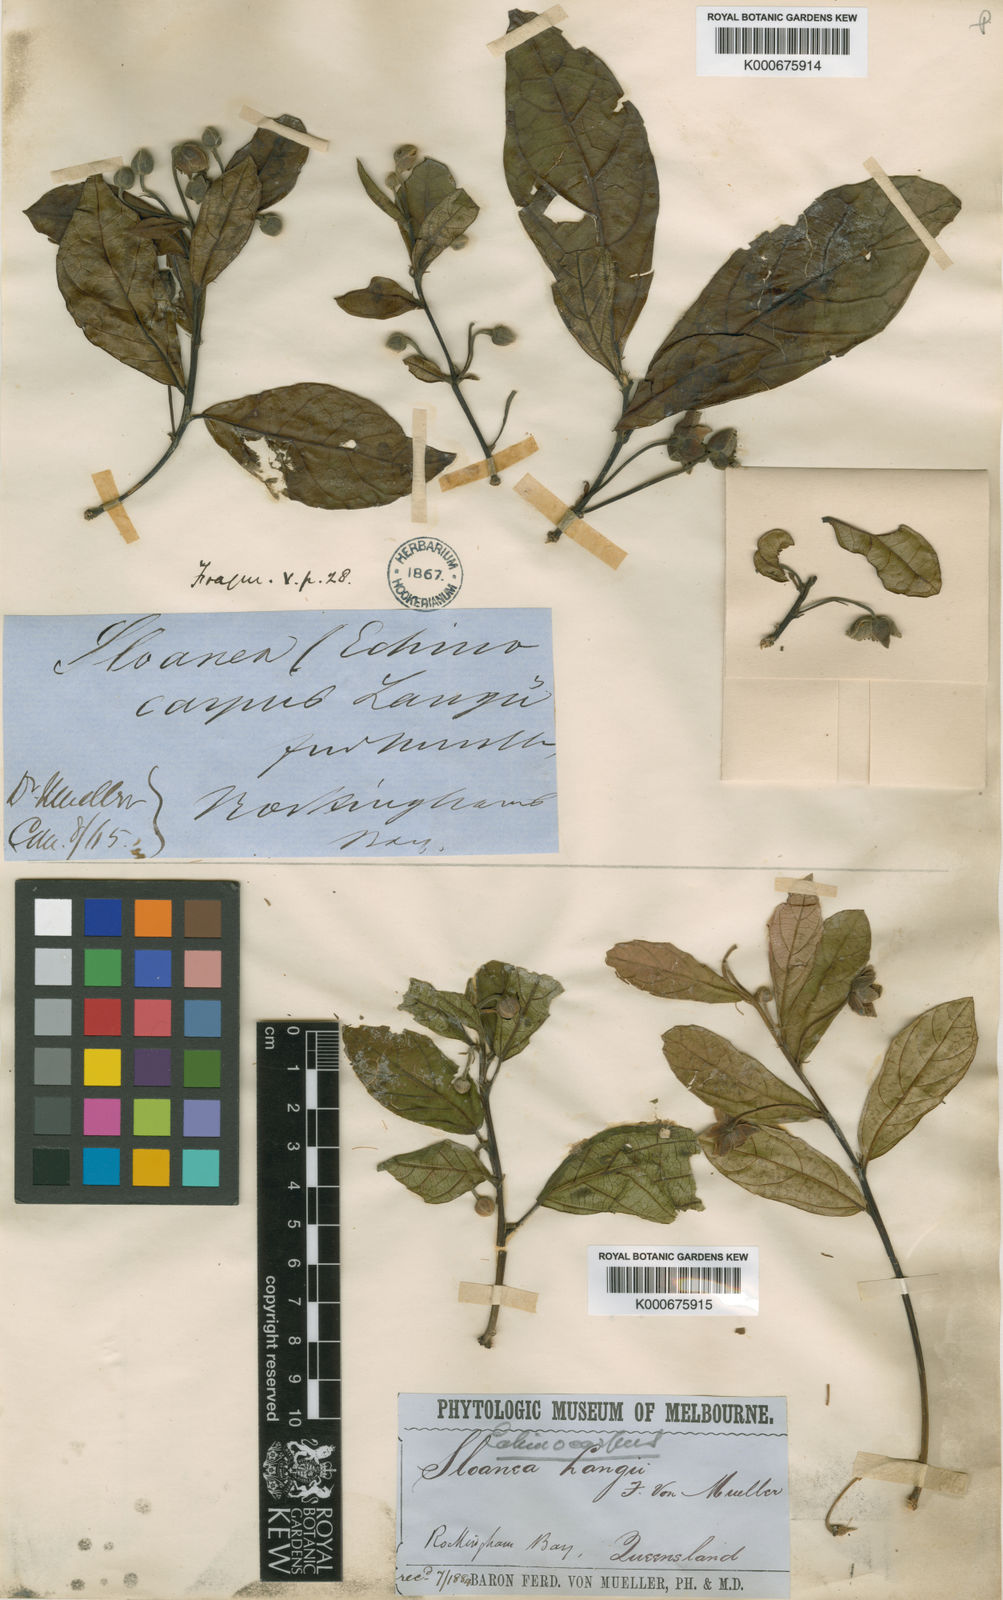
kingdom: Plantae
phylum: Tracheophyta
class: Magnoliopsida
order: Oxalidales
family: Elaeocarpaceae
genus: Sloanea
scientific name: Sloanea langii
